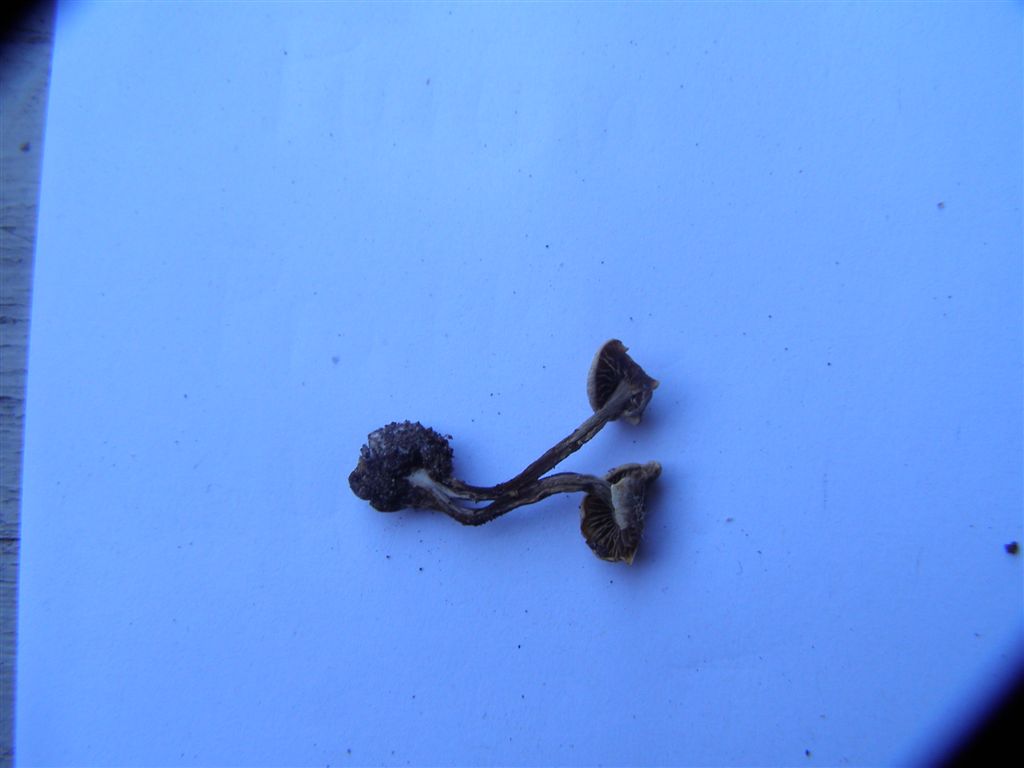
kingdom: Fungi
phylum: Basidiomycota
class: Agaricomycetes
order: Agaricales
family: Hymenogastraceae
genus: Hebeloma
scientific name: Hebeloma fusisporum
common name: kandis-tåreblad
